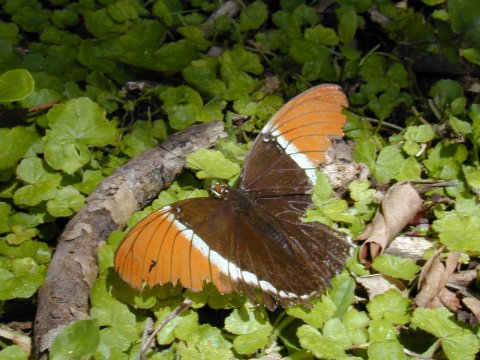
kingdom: Animalia
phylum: Arthropoda
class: Insecta
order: Lepidoptera
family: Nymphalidae
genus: Siproeta
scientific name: Siproeta epaphus
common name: Rusty-tipped Page
